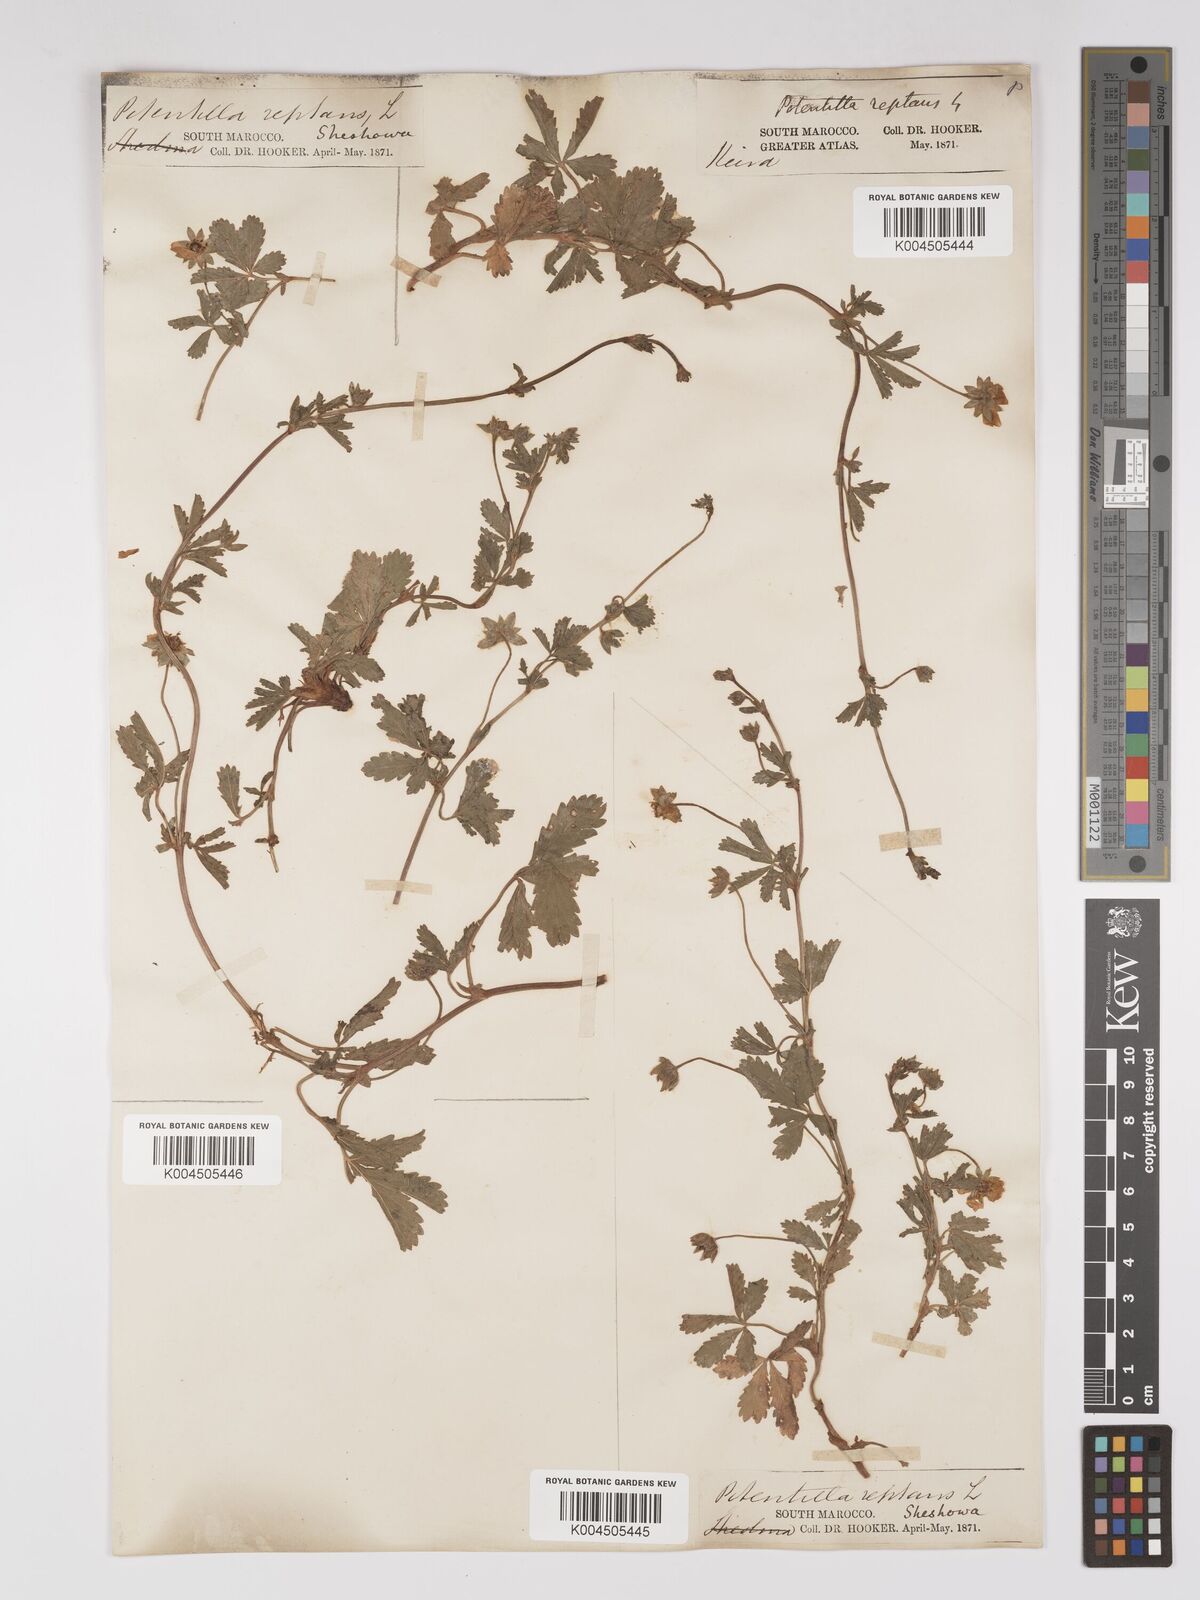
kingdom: Plantae
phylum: Tracheophyta
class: Magnoliopsida
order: Rosales
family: Rosaceae
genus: Potentilla
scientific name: Potentilla reptans
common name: Creeping cinquefoil
